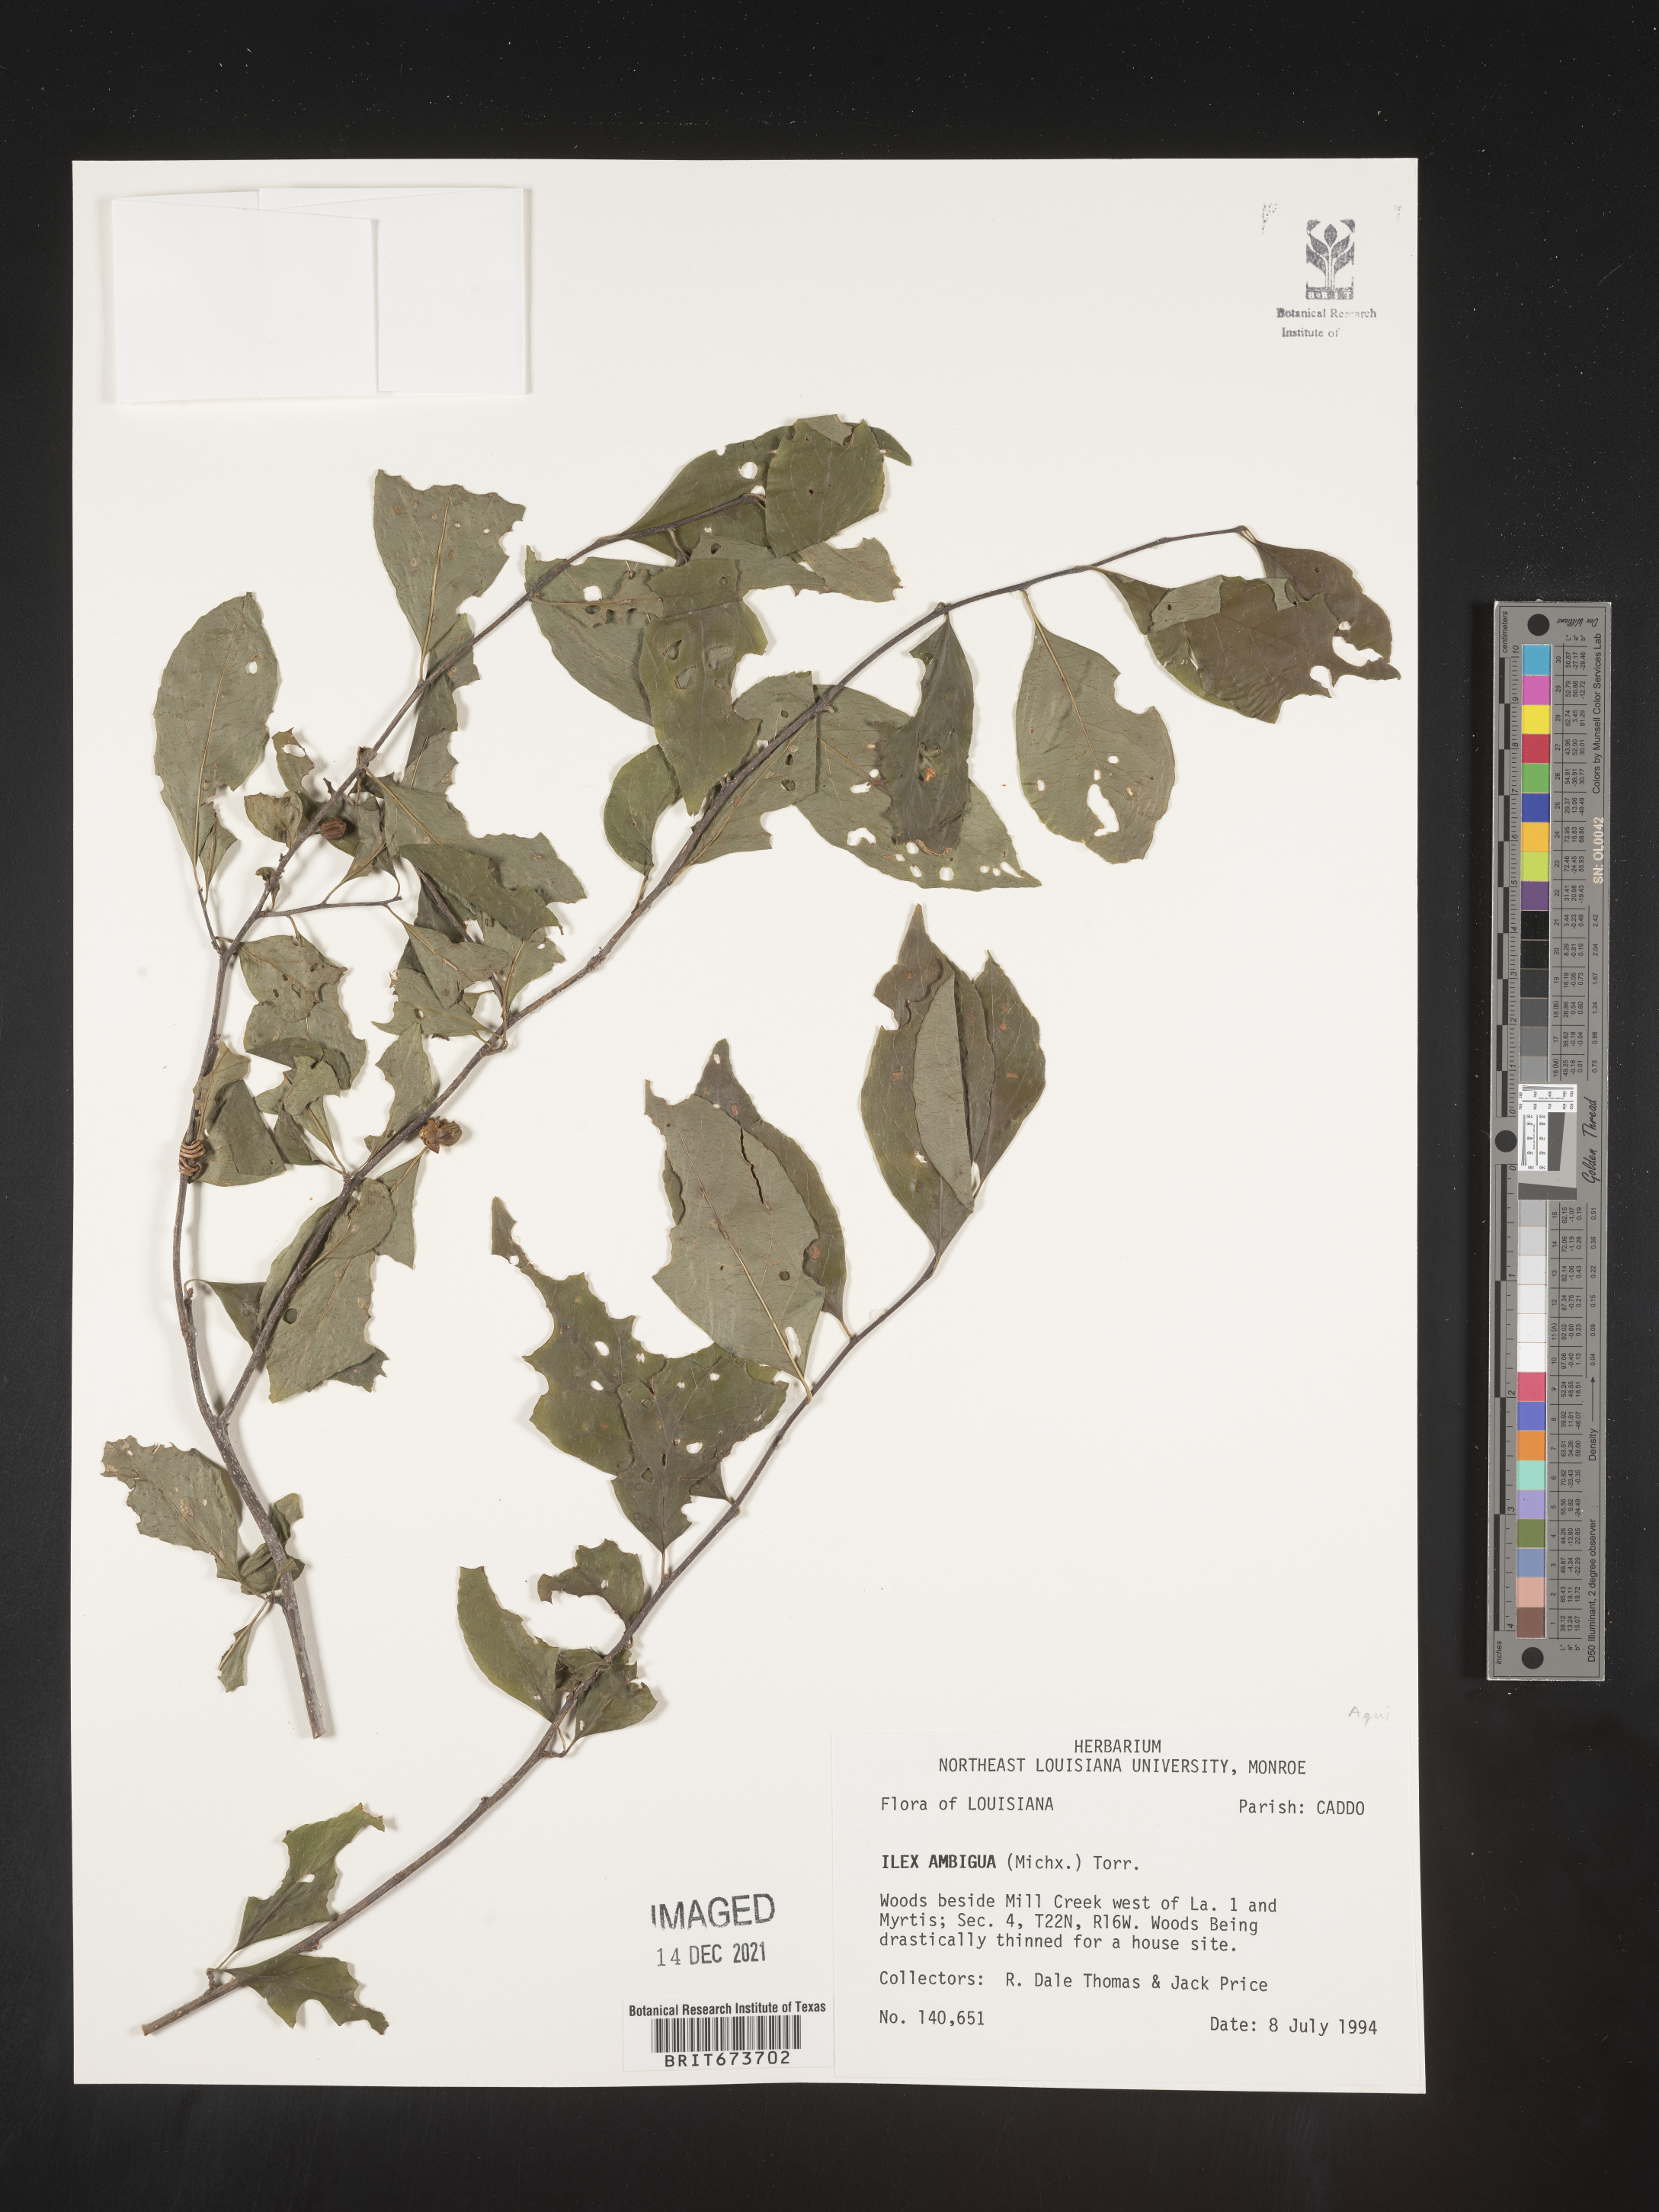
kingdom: Plantae
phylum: Tracheophyta
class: Magnoliopsida
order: Aquifoliales
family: Aquifoliaceae
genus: Ilex
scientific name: Ilex ambigua
